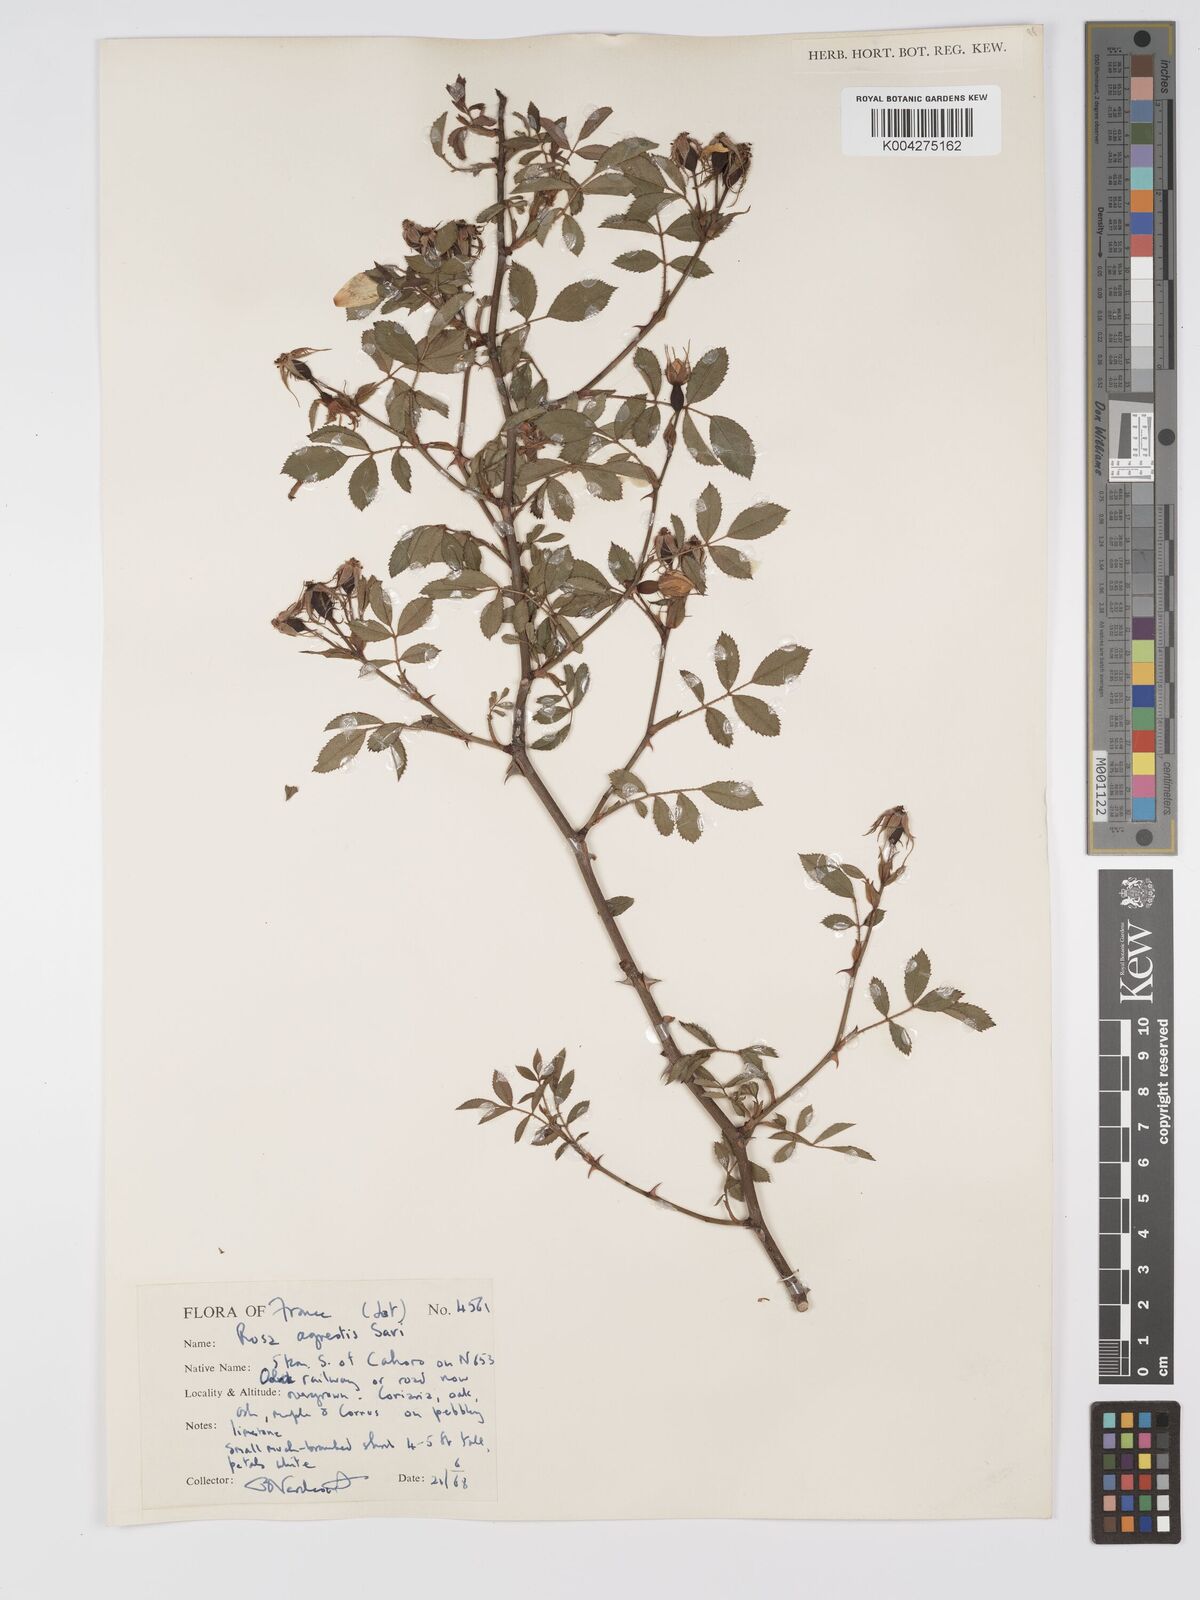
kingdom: Plantae
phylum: Tracheophyta
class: Magnoliopsida
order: Rosales
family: Rosaceae
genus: Rosa
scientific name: Rosa
